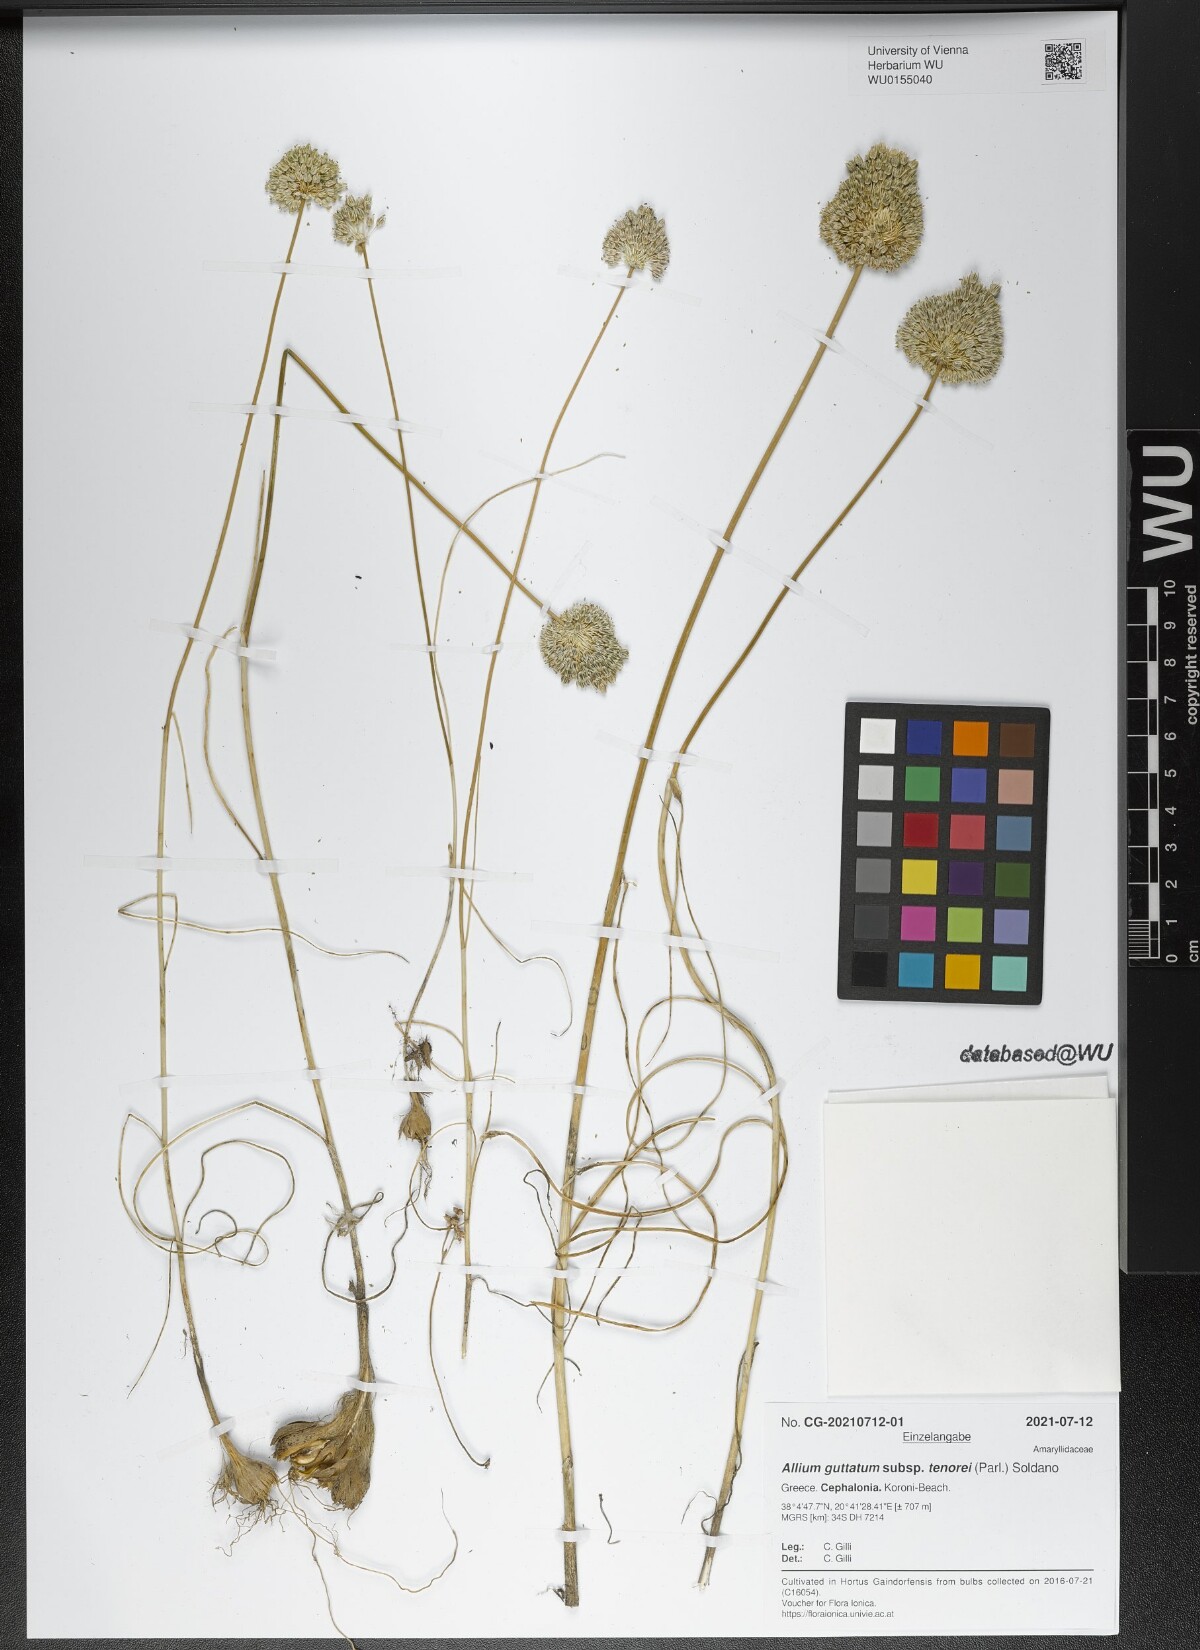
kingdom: Plantae
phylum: Tracheophyta
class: Liliopsida
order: Asparagales
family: Amaryllidaceae
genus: Allium
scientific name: Allium sardoum
